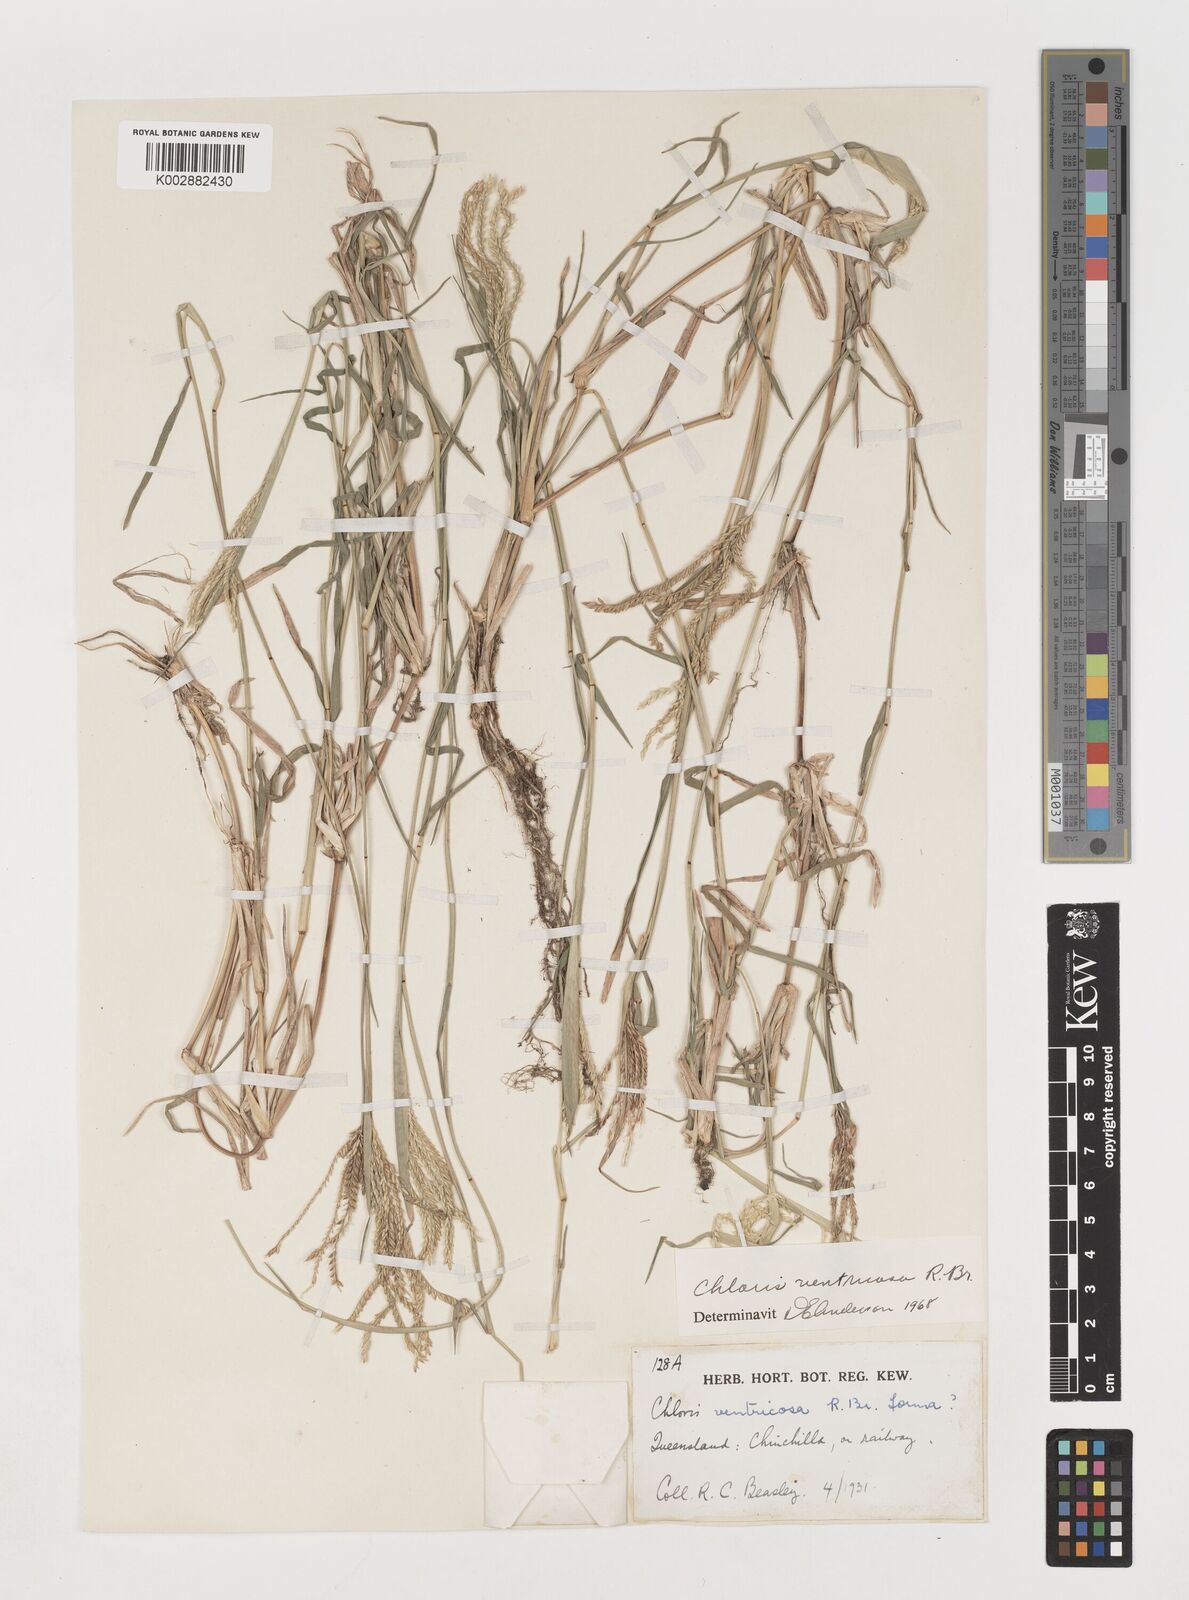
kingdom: Plantae
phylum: Tracheophyta
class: Liliopsida
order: Poales
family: Poaceae
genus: Chloris
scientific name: Chloris ventricosa
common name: Australian windmill grass
